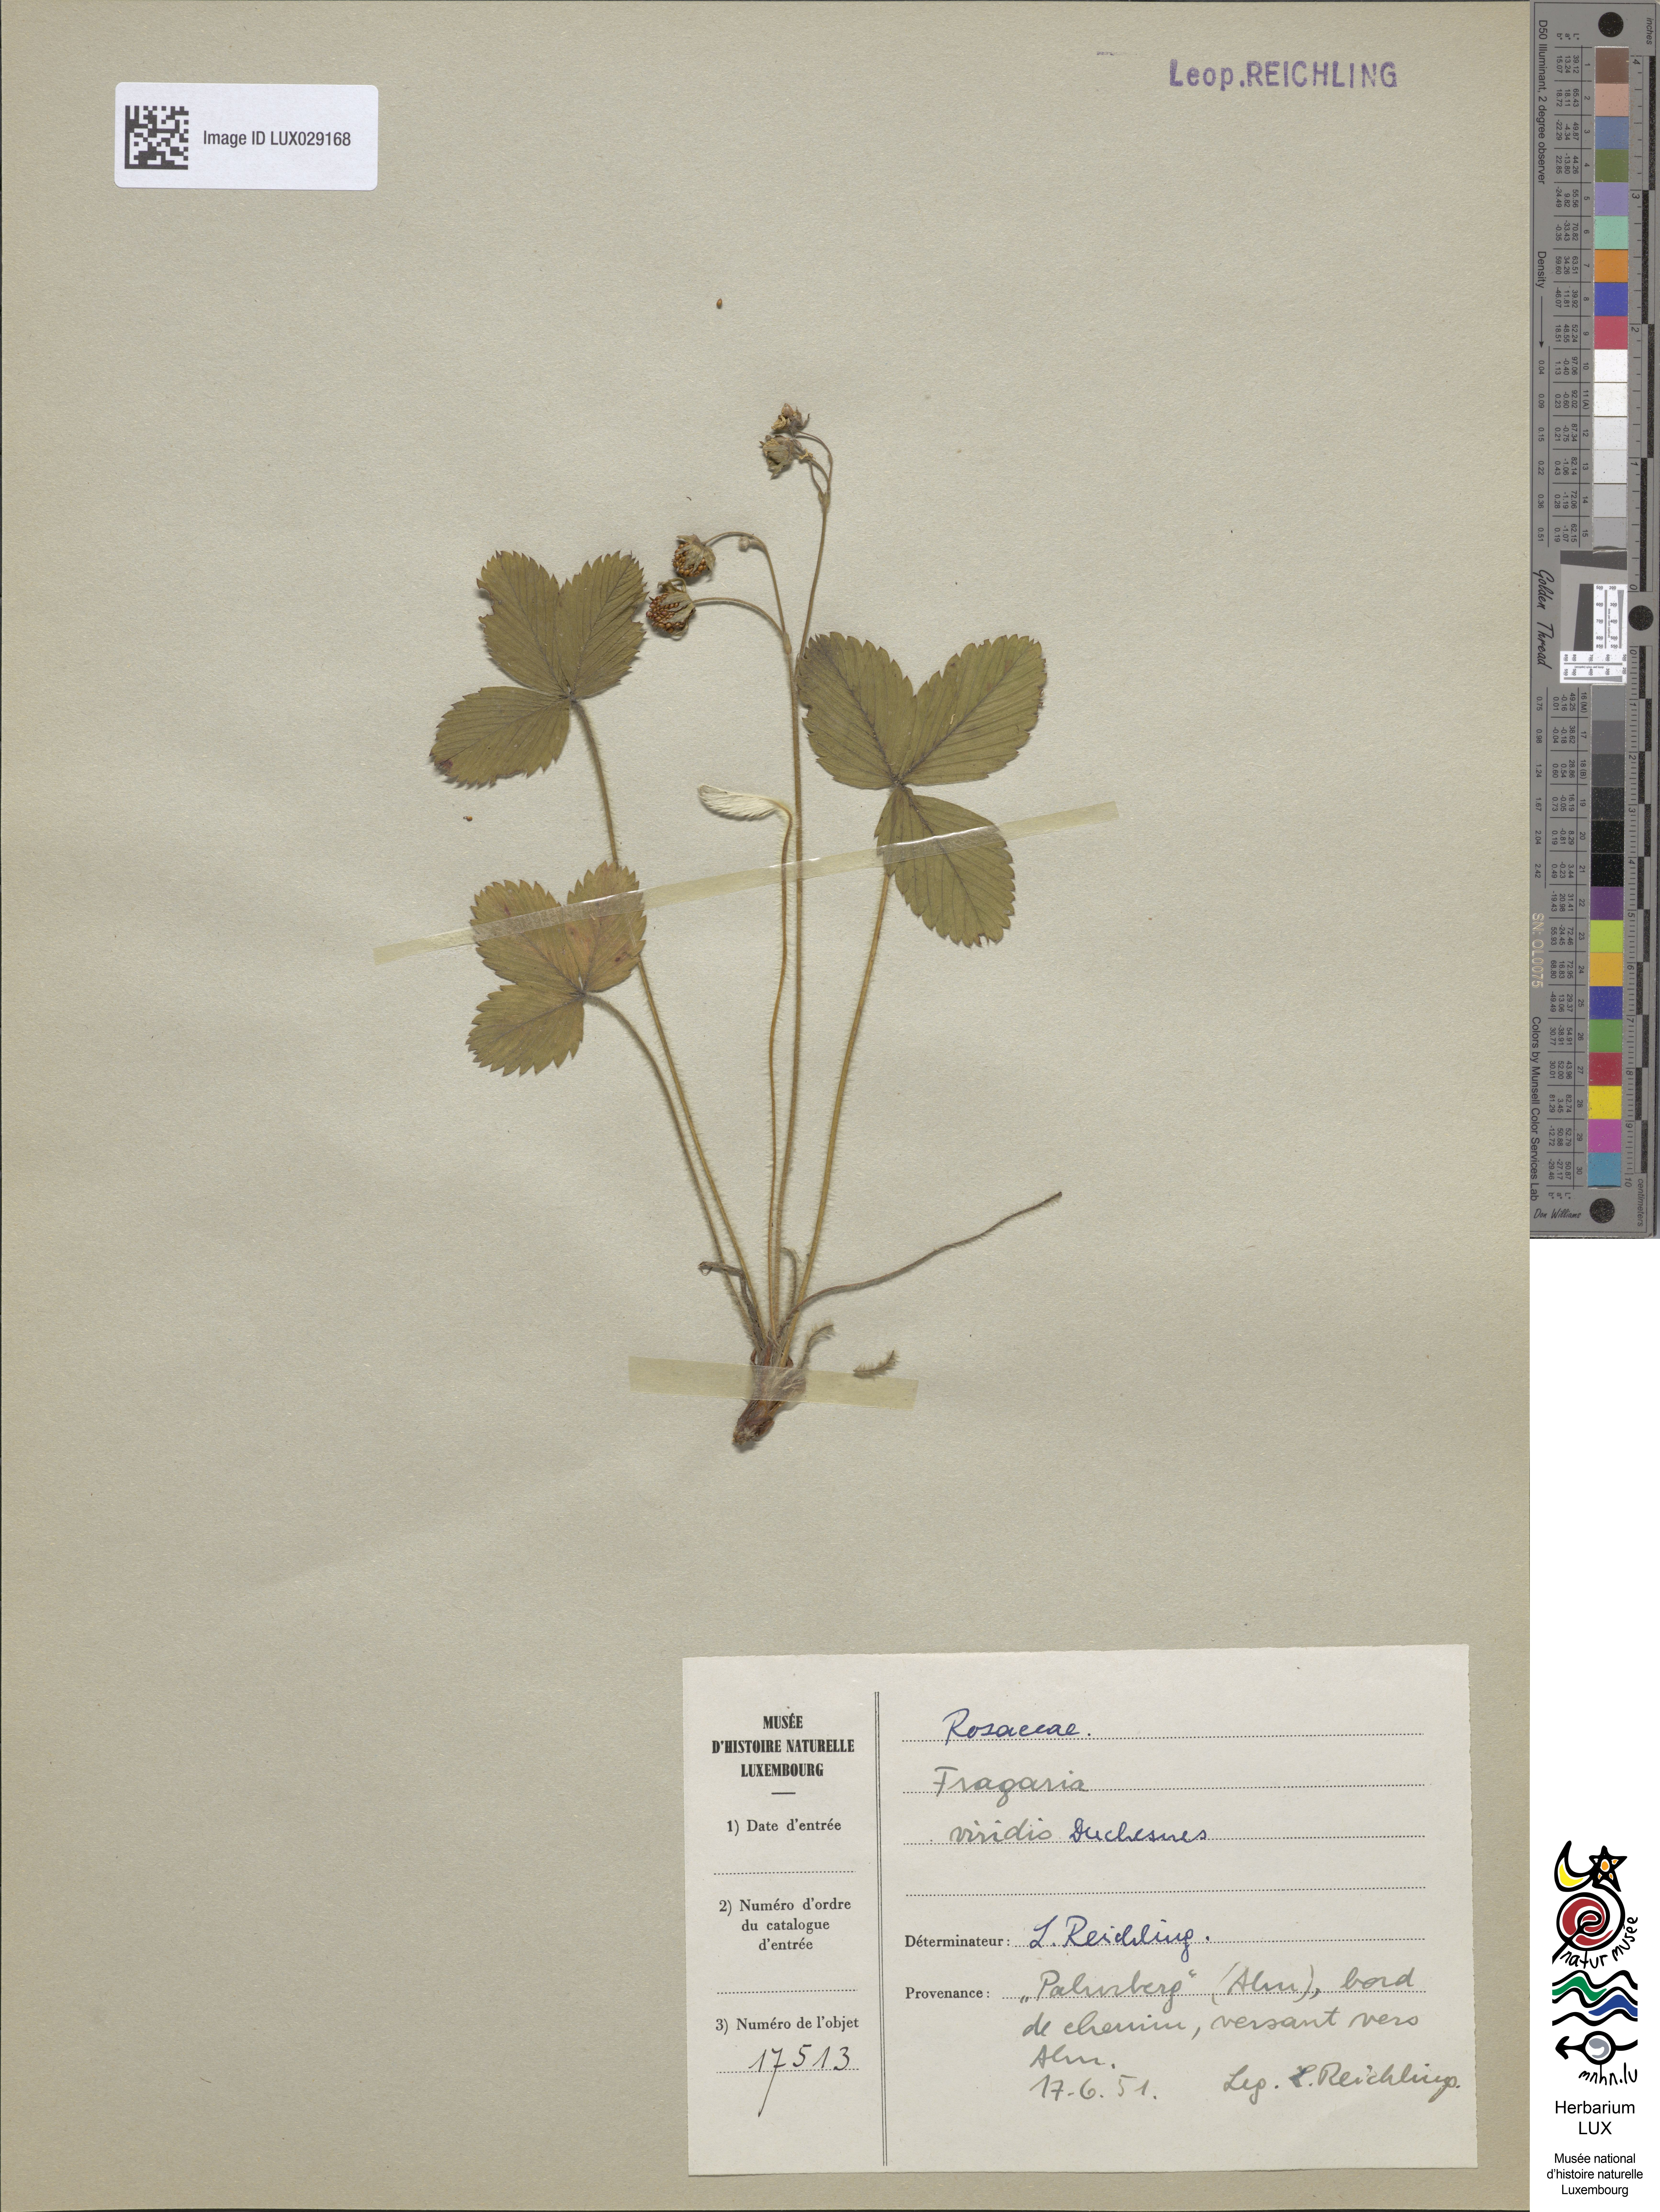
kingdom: Plantae
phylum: Tracheophyta
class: Magnoliopsida
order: Rosales
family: Rosaceae
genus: Fragaria
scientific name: Fragaria viridis
